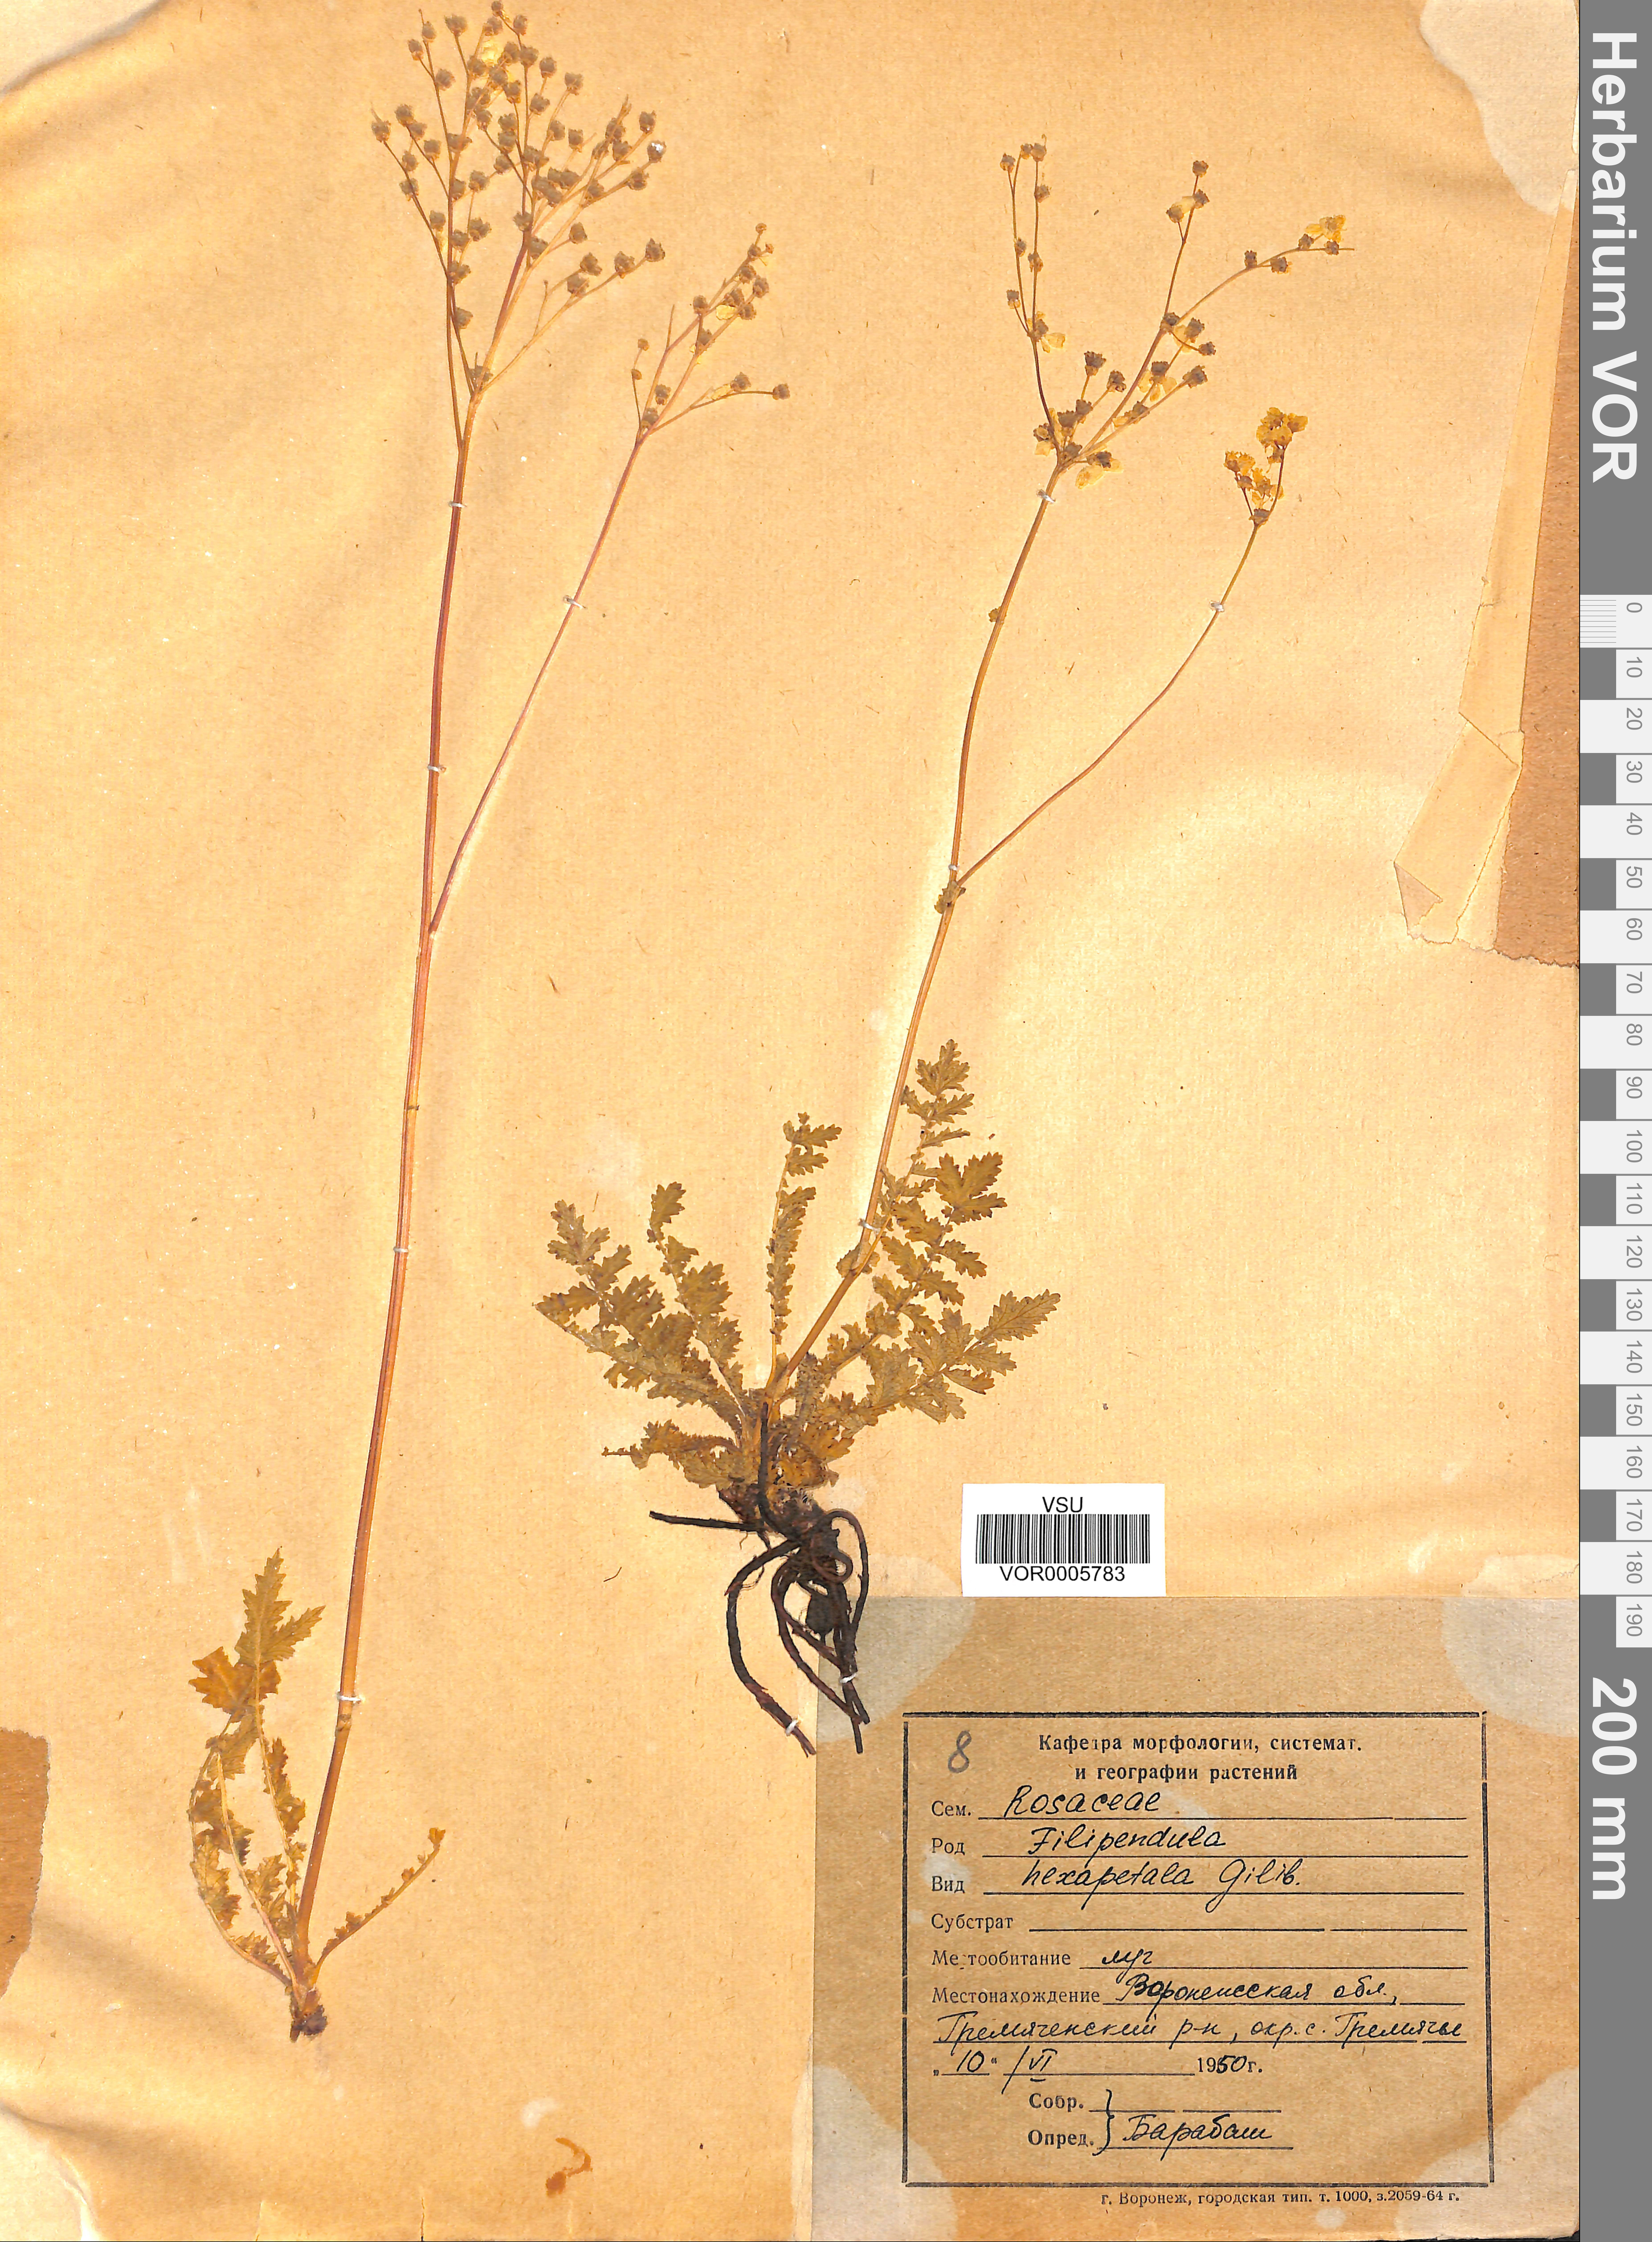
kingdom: Plantae
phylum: Tracheophyta
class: Magnoliopsida
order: Rosales
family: Rosaceae
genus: Filipendula
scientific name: Filipendula vulgaris
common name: Dropwort
